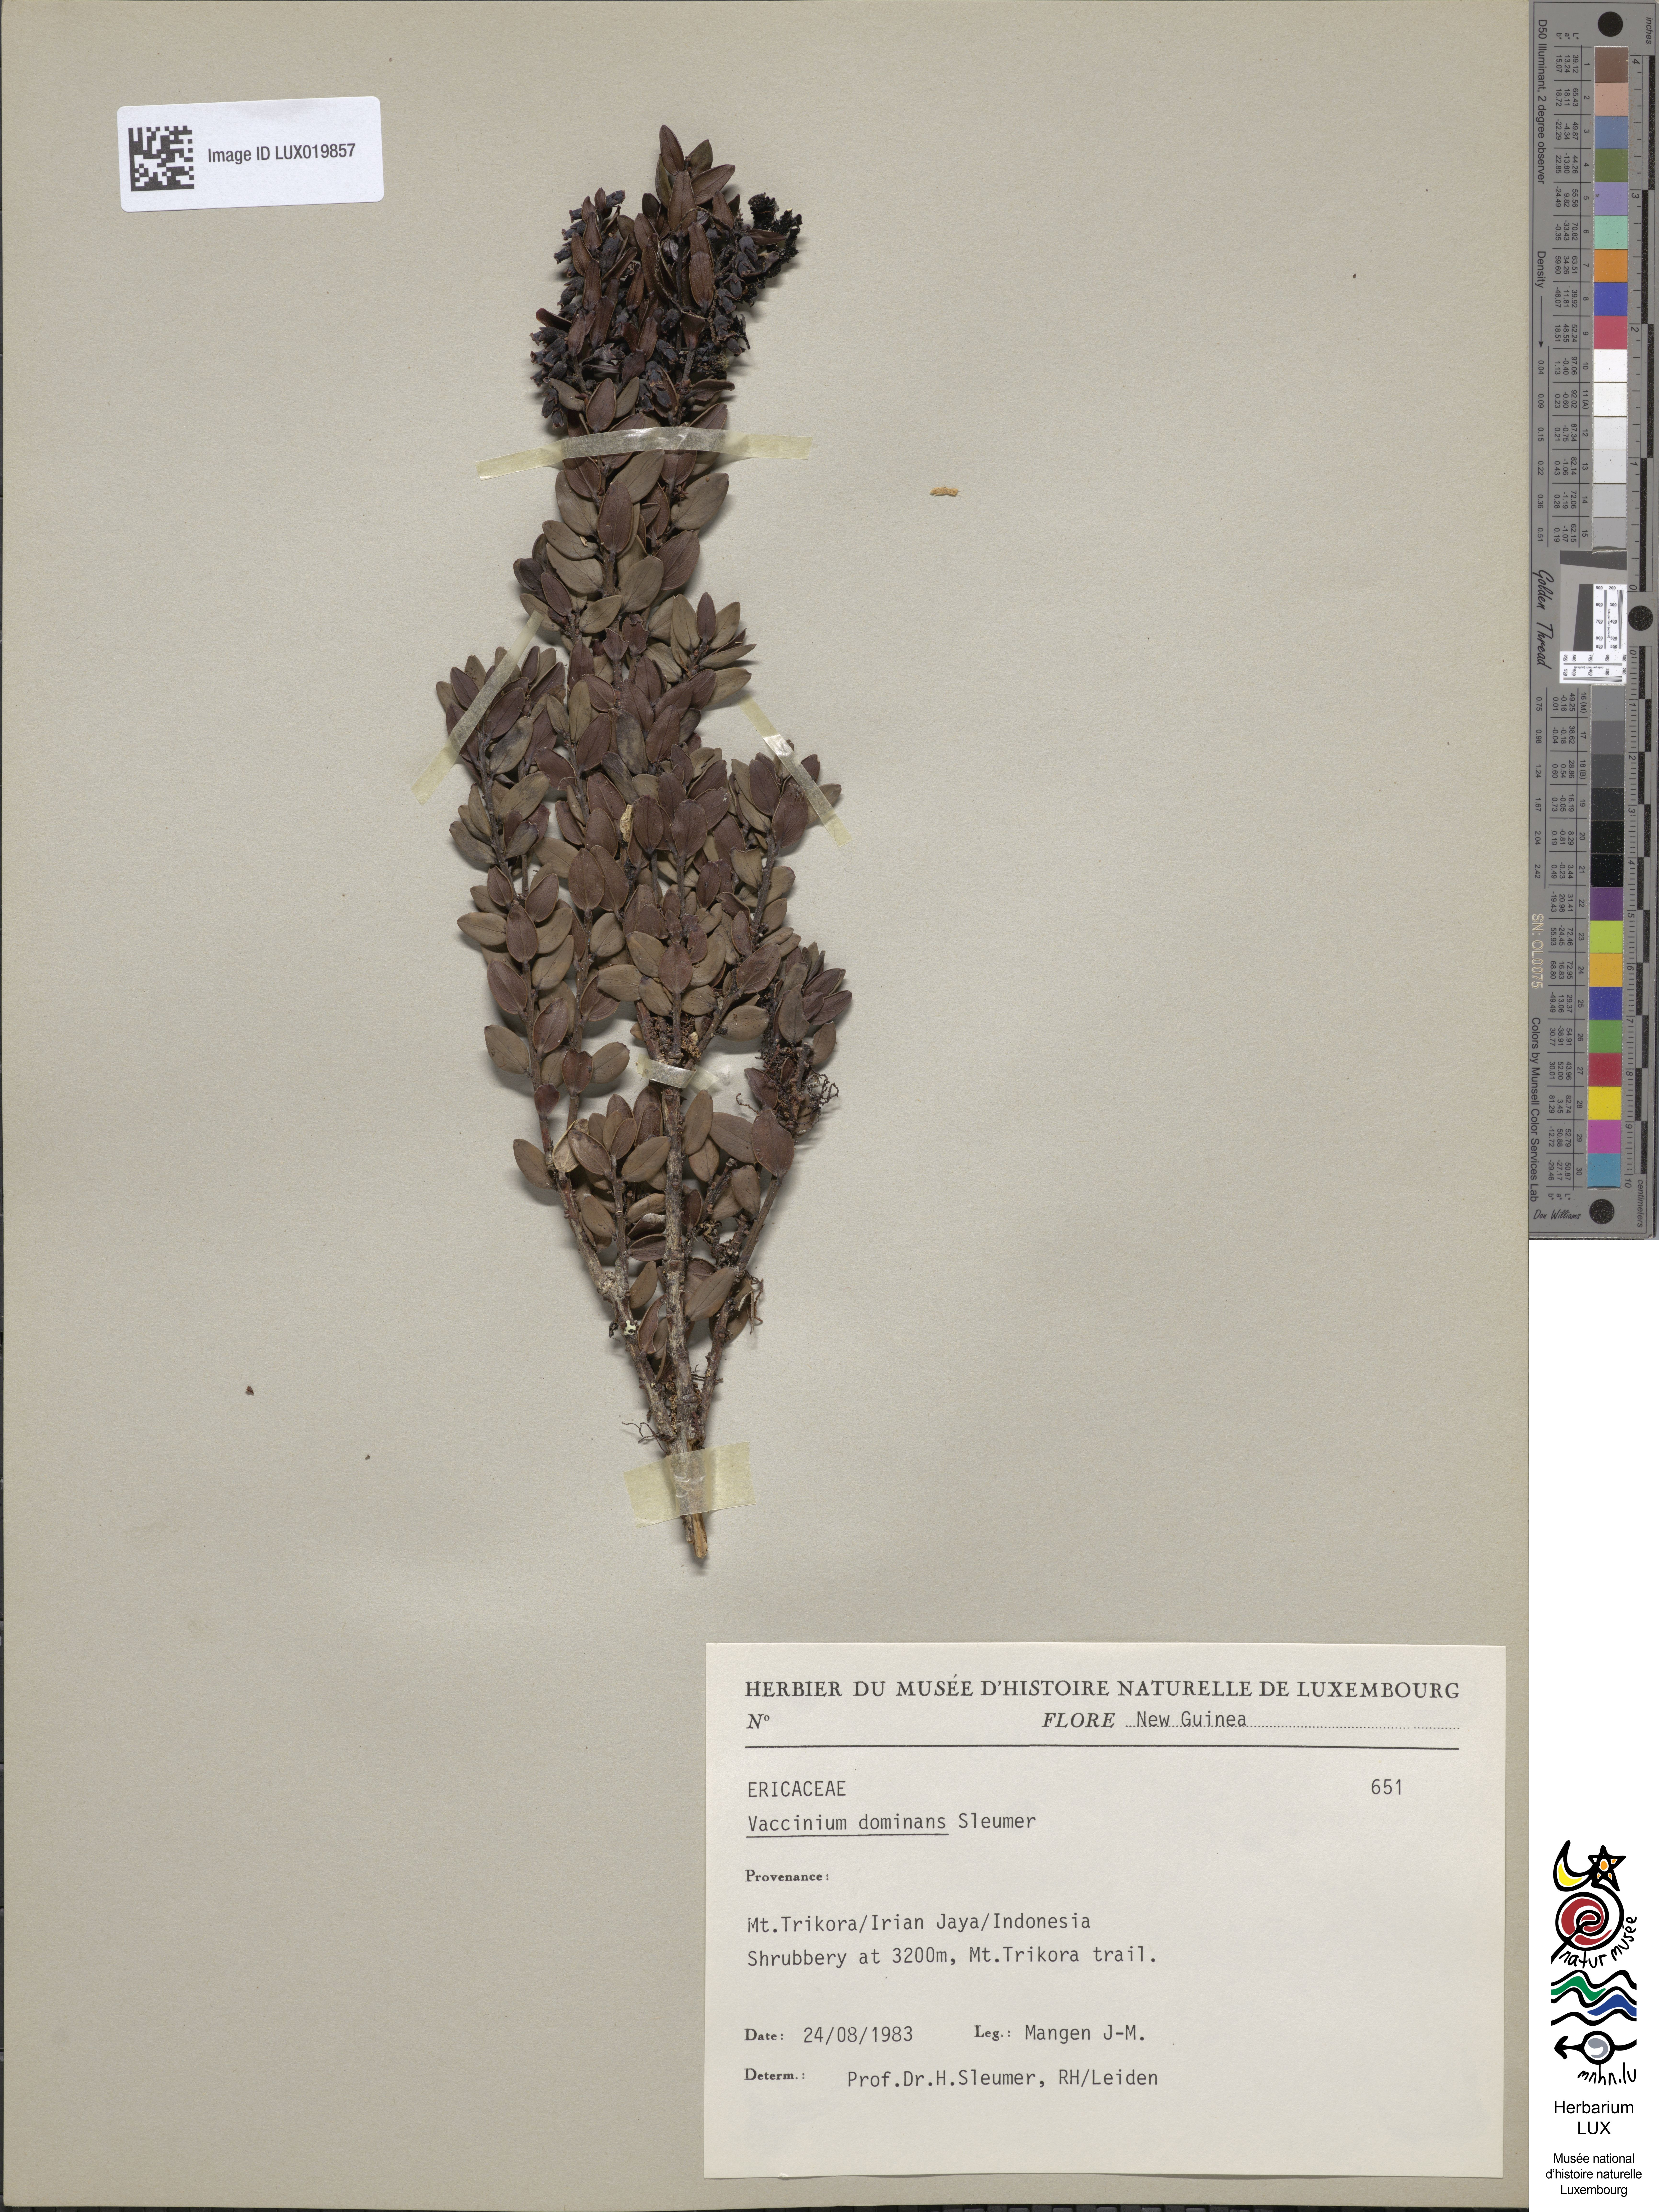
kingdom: Plantae
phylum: Tracheophyta
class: Magnoliopsida
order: Ericales
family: Ericaceae
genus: Vaccinium
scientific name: Vaccinium dominans
